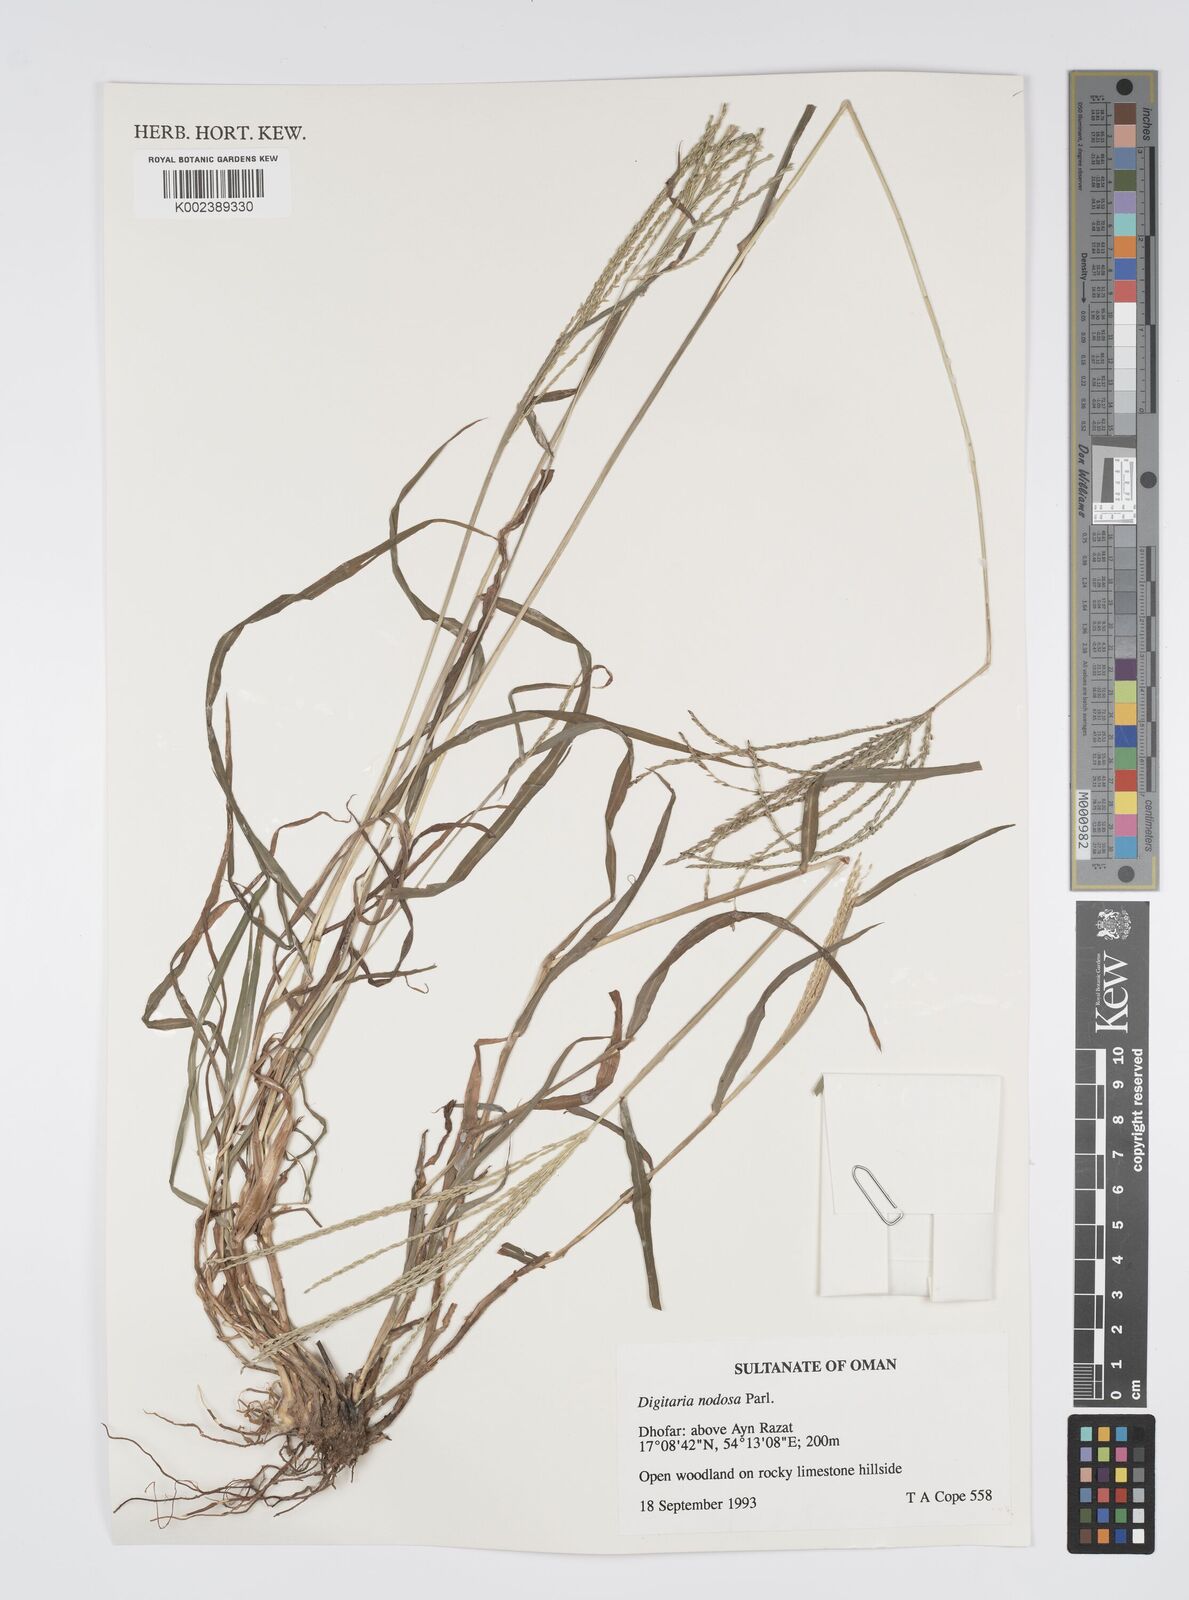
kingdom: Plantae
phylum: Tracheophyta
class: Liliopsida
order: Poales
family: Poaceae
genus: Digitaria
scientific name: Digitaria nodosa
